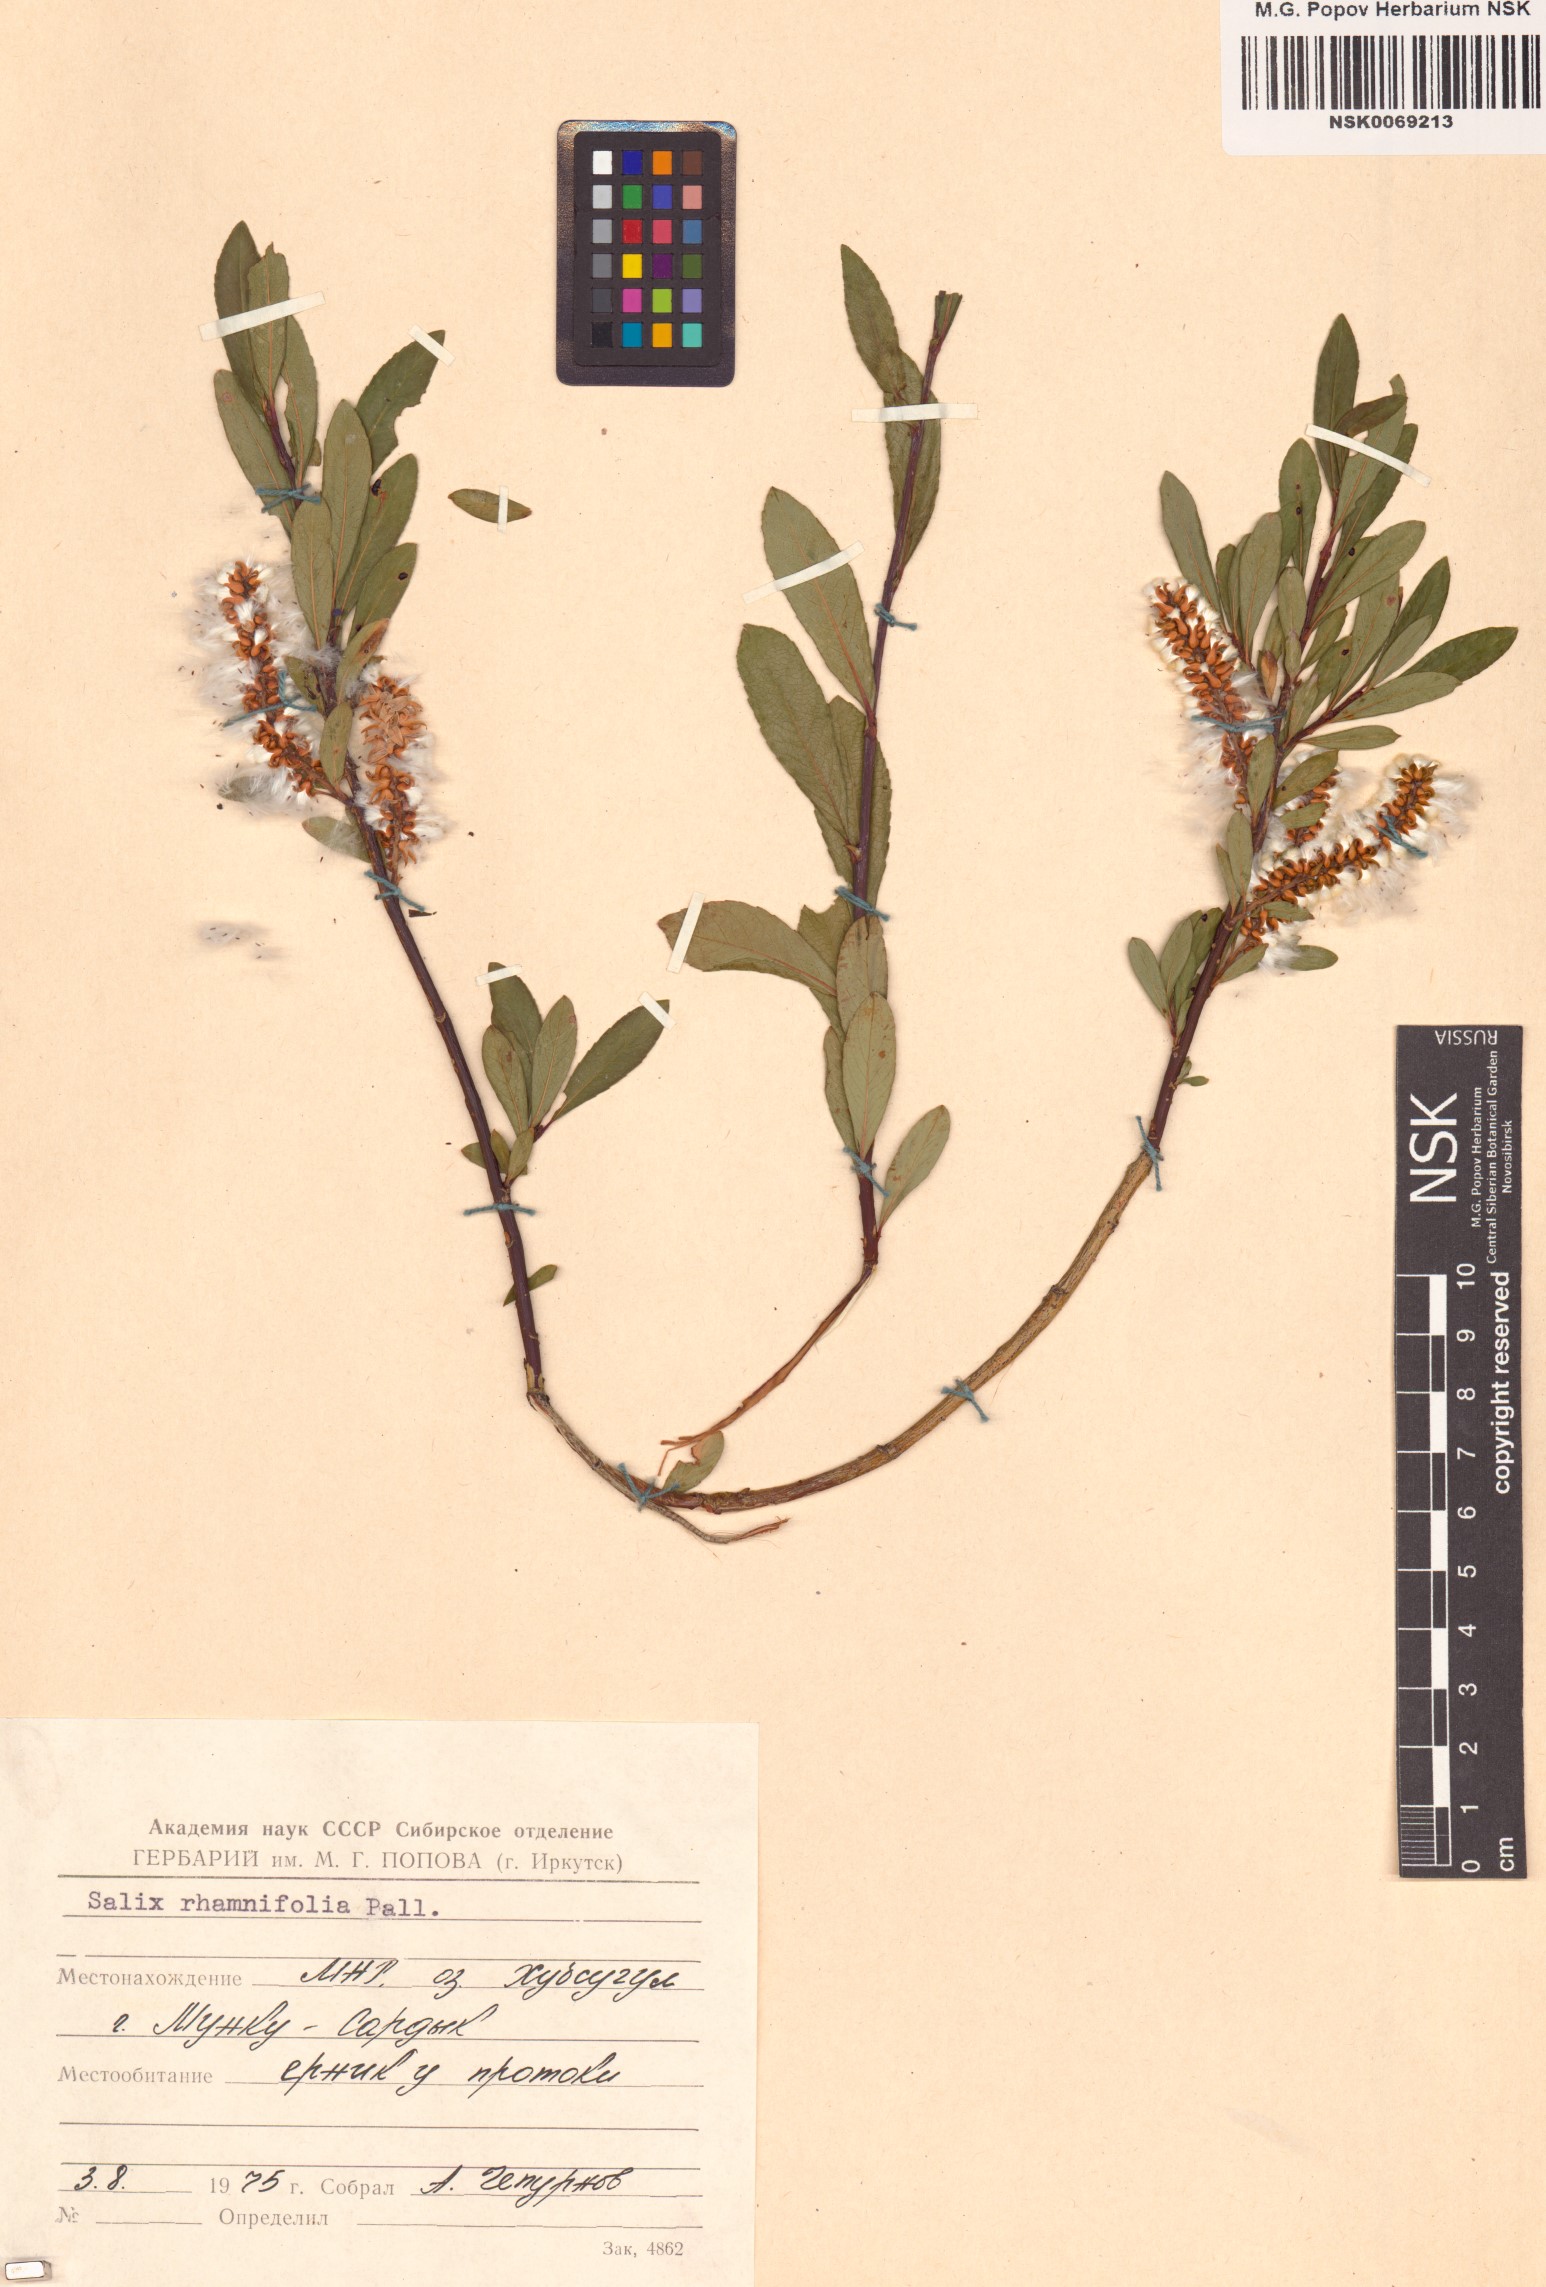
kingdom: Plantae
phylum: Tracheophyta
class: Magnoliopsida
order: Malpighiales
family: Salicaceae
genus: Salix
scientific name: Salix rhamnifolia
